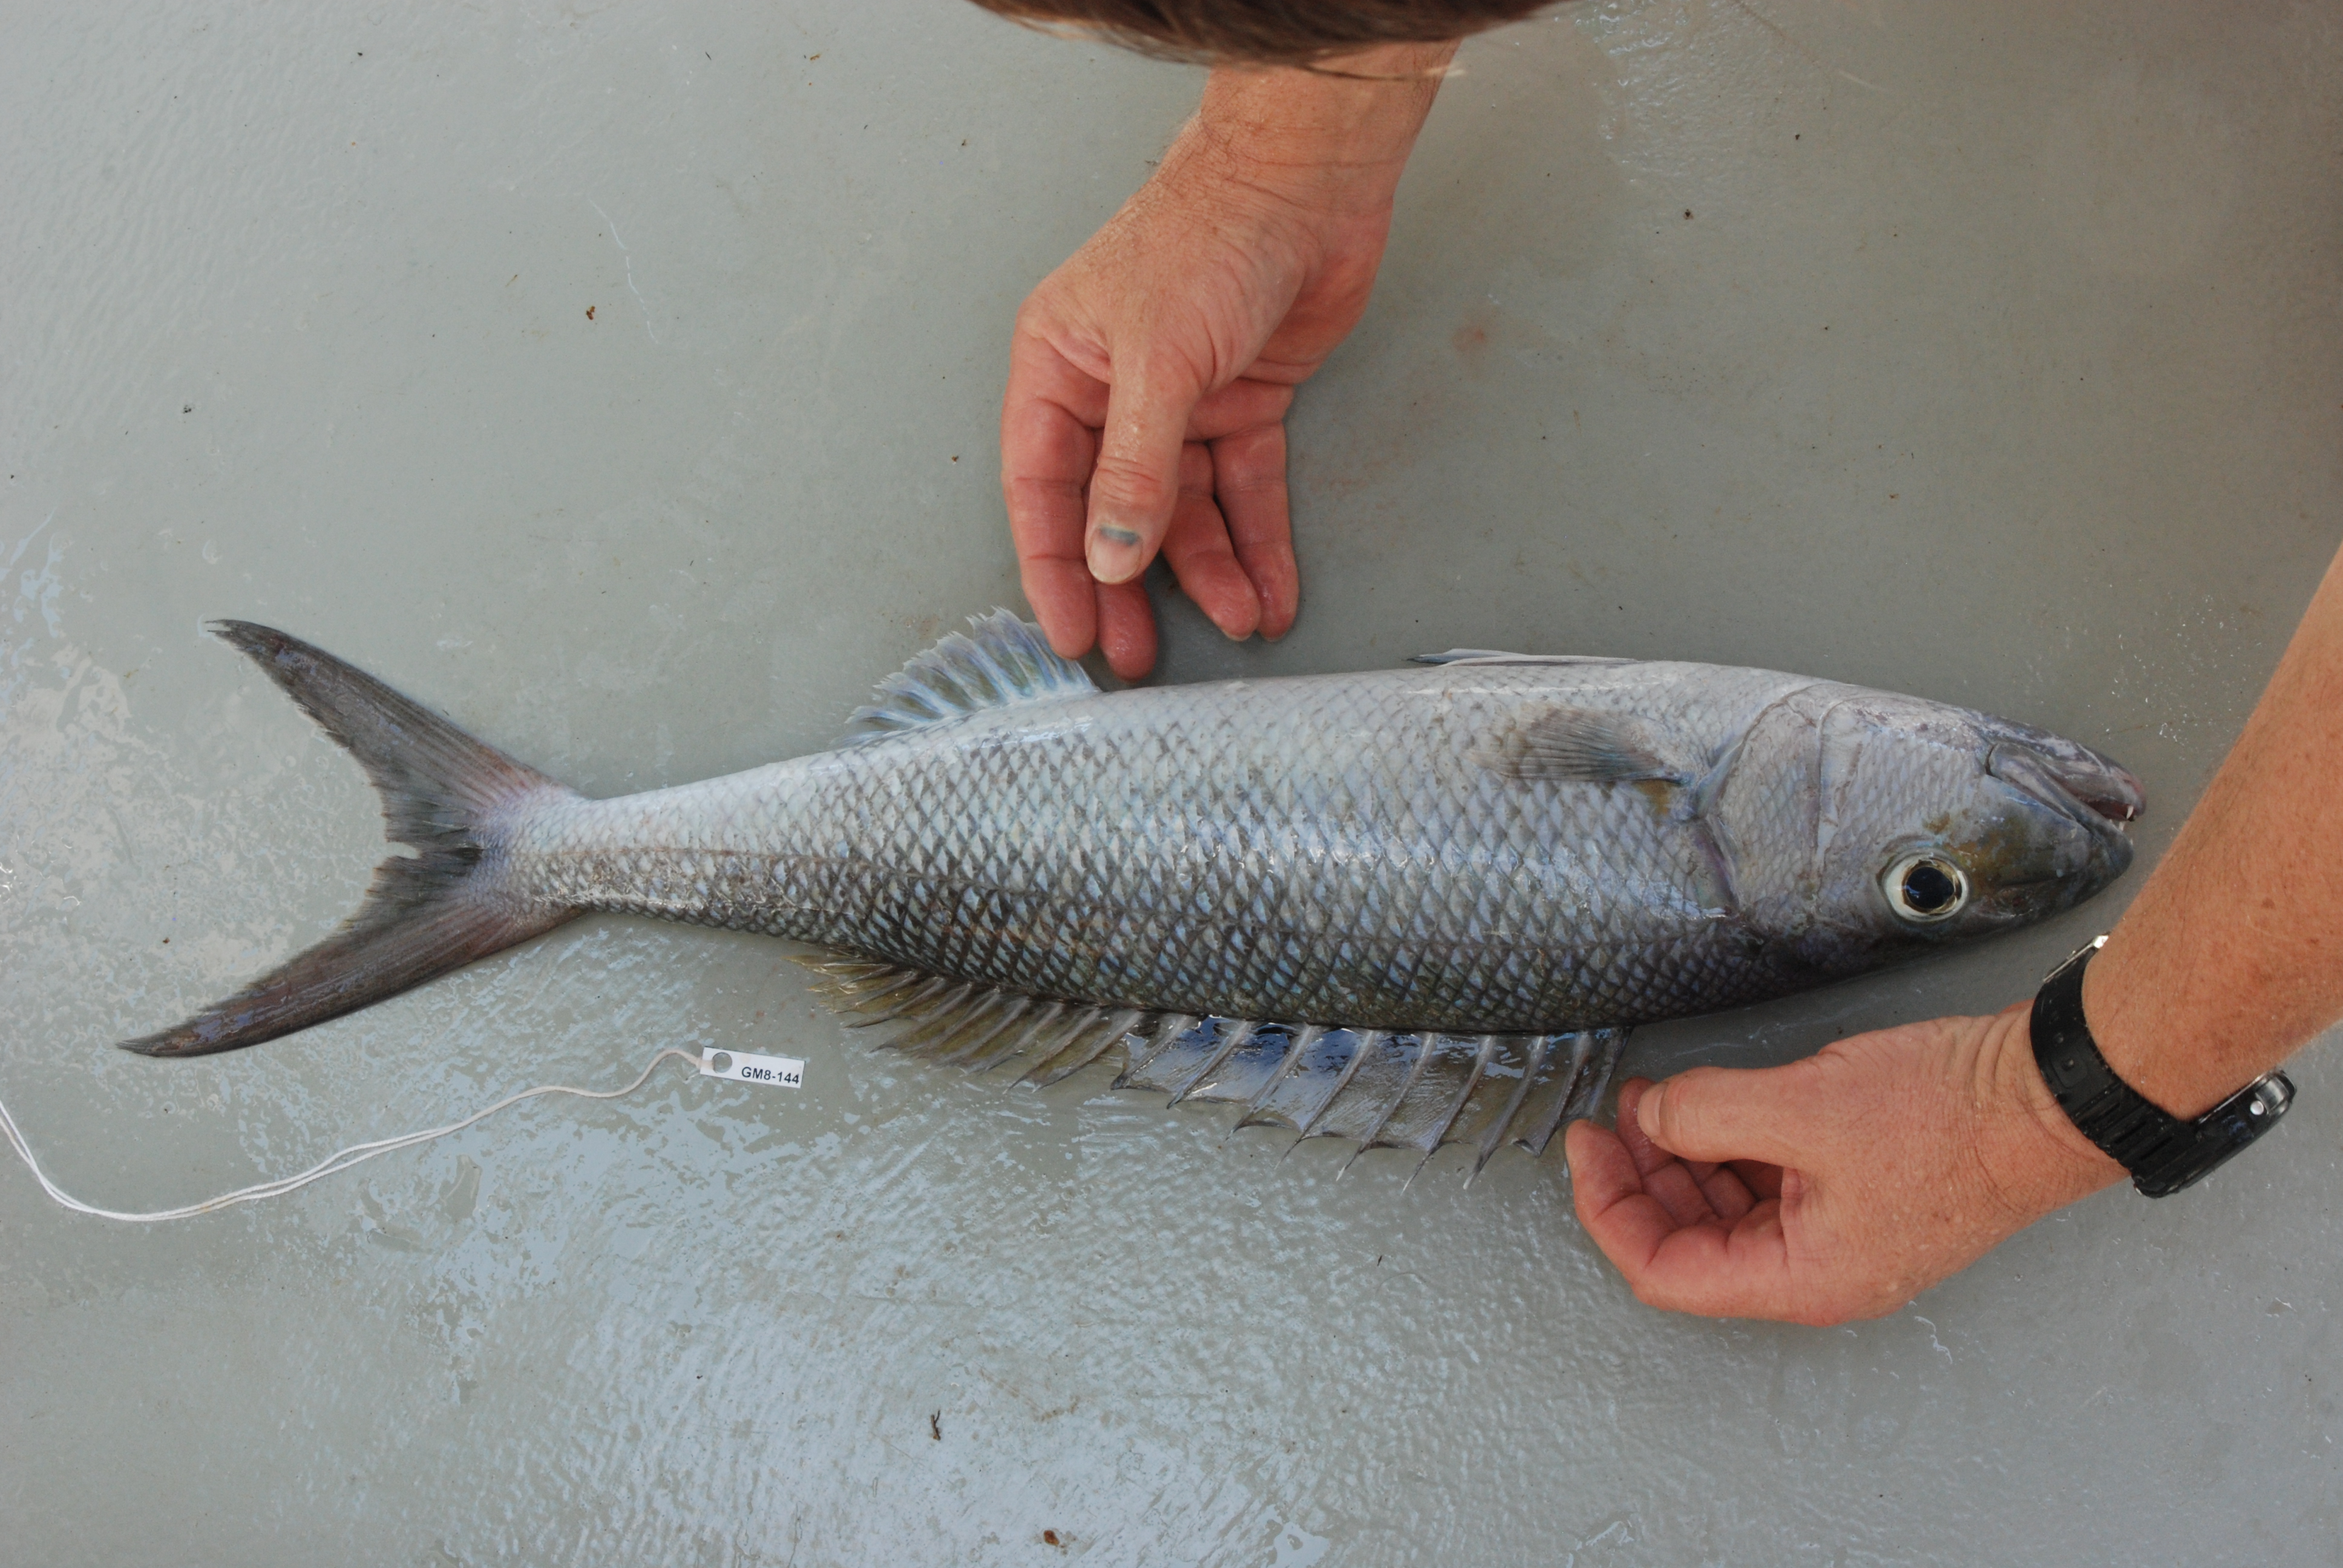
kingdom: Animalia
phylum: Chordata
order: Perciformes
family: Lutjanidae
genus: Aprion
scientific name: Aprion virescens
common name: Green jobfish
